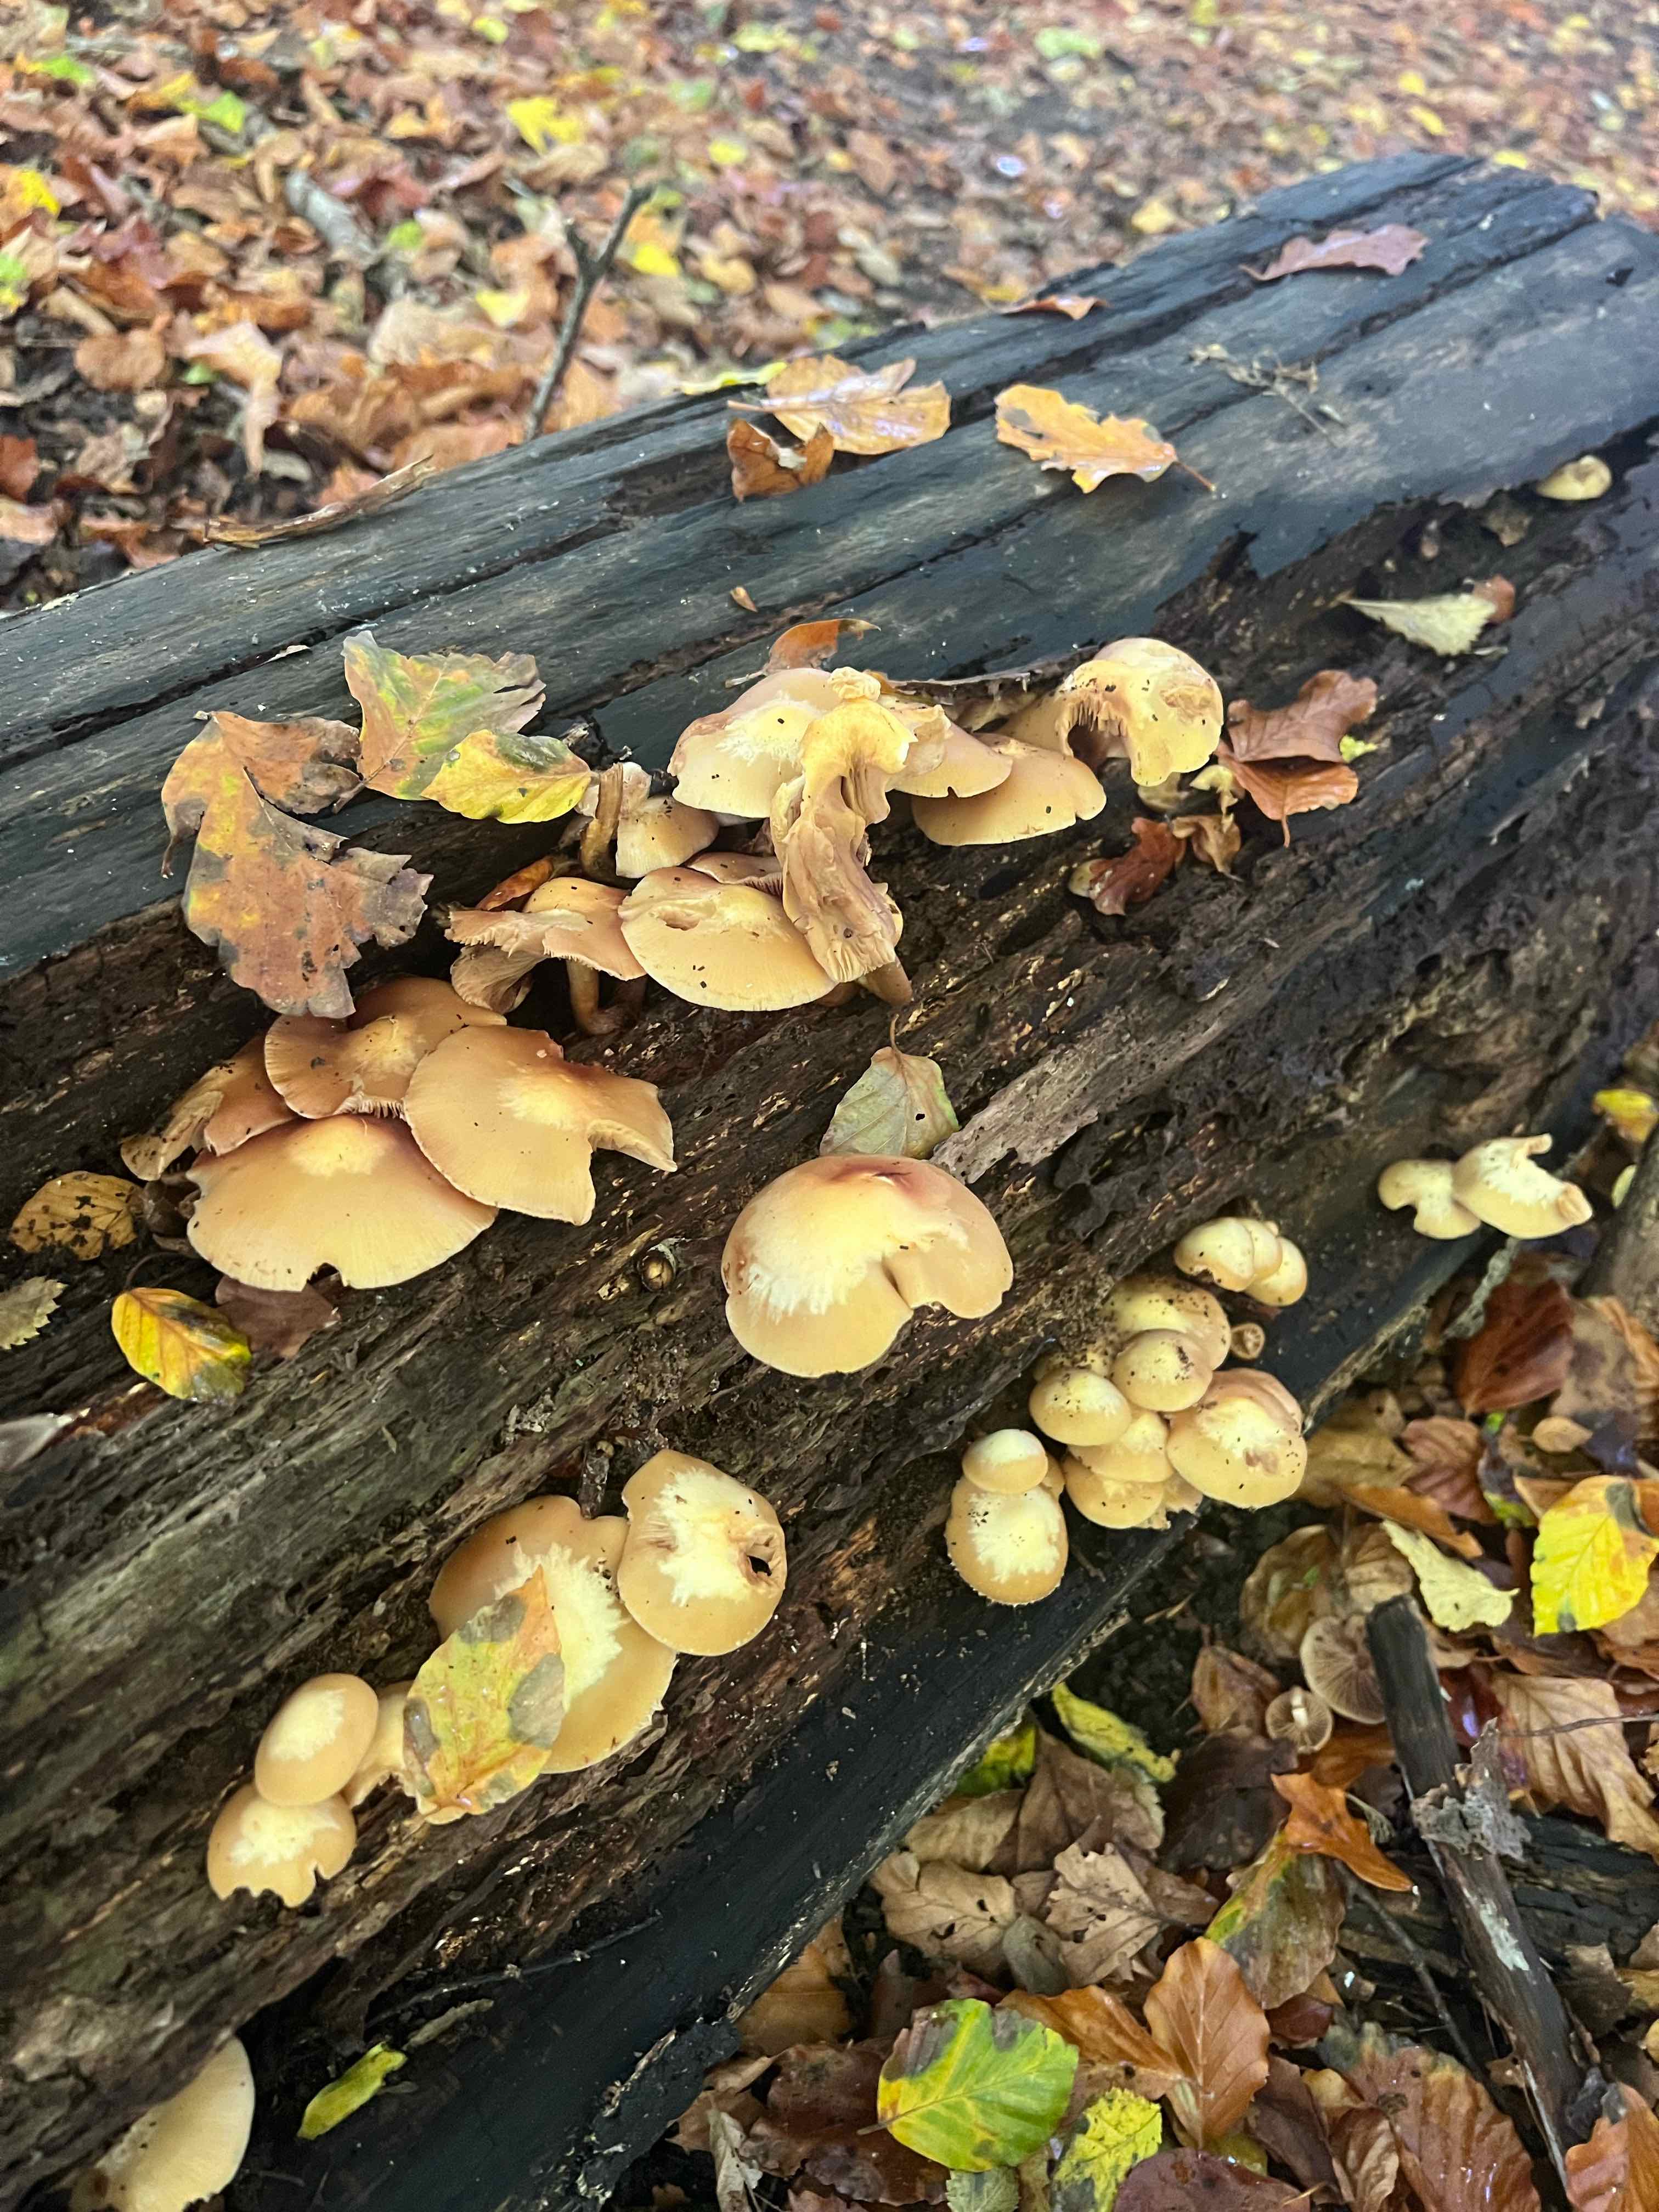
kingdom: Fungi
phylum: Basidiomycota
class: Agaricomycetes
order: Agaricales
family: Strophariaceae
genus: Kuehneromyces
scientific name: Kuehneromyces mutabilis
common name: foranderlig skælhat
